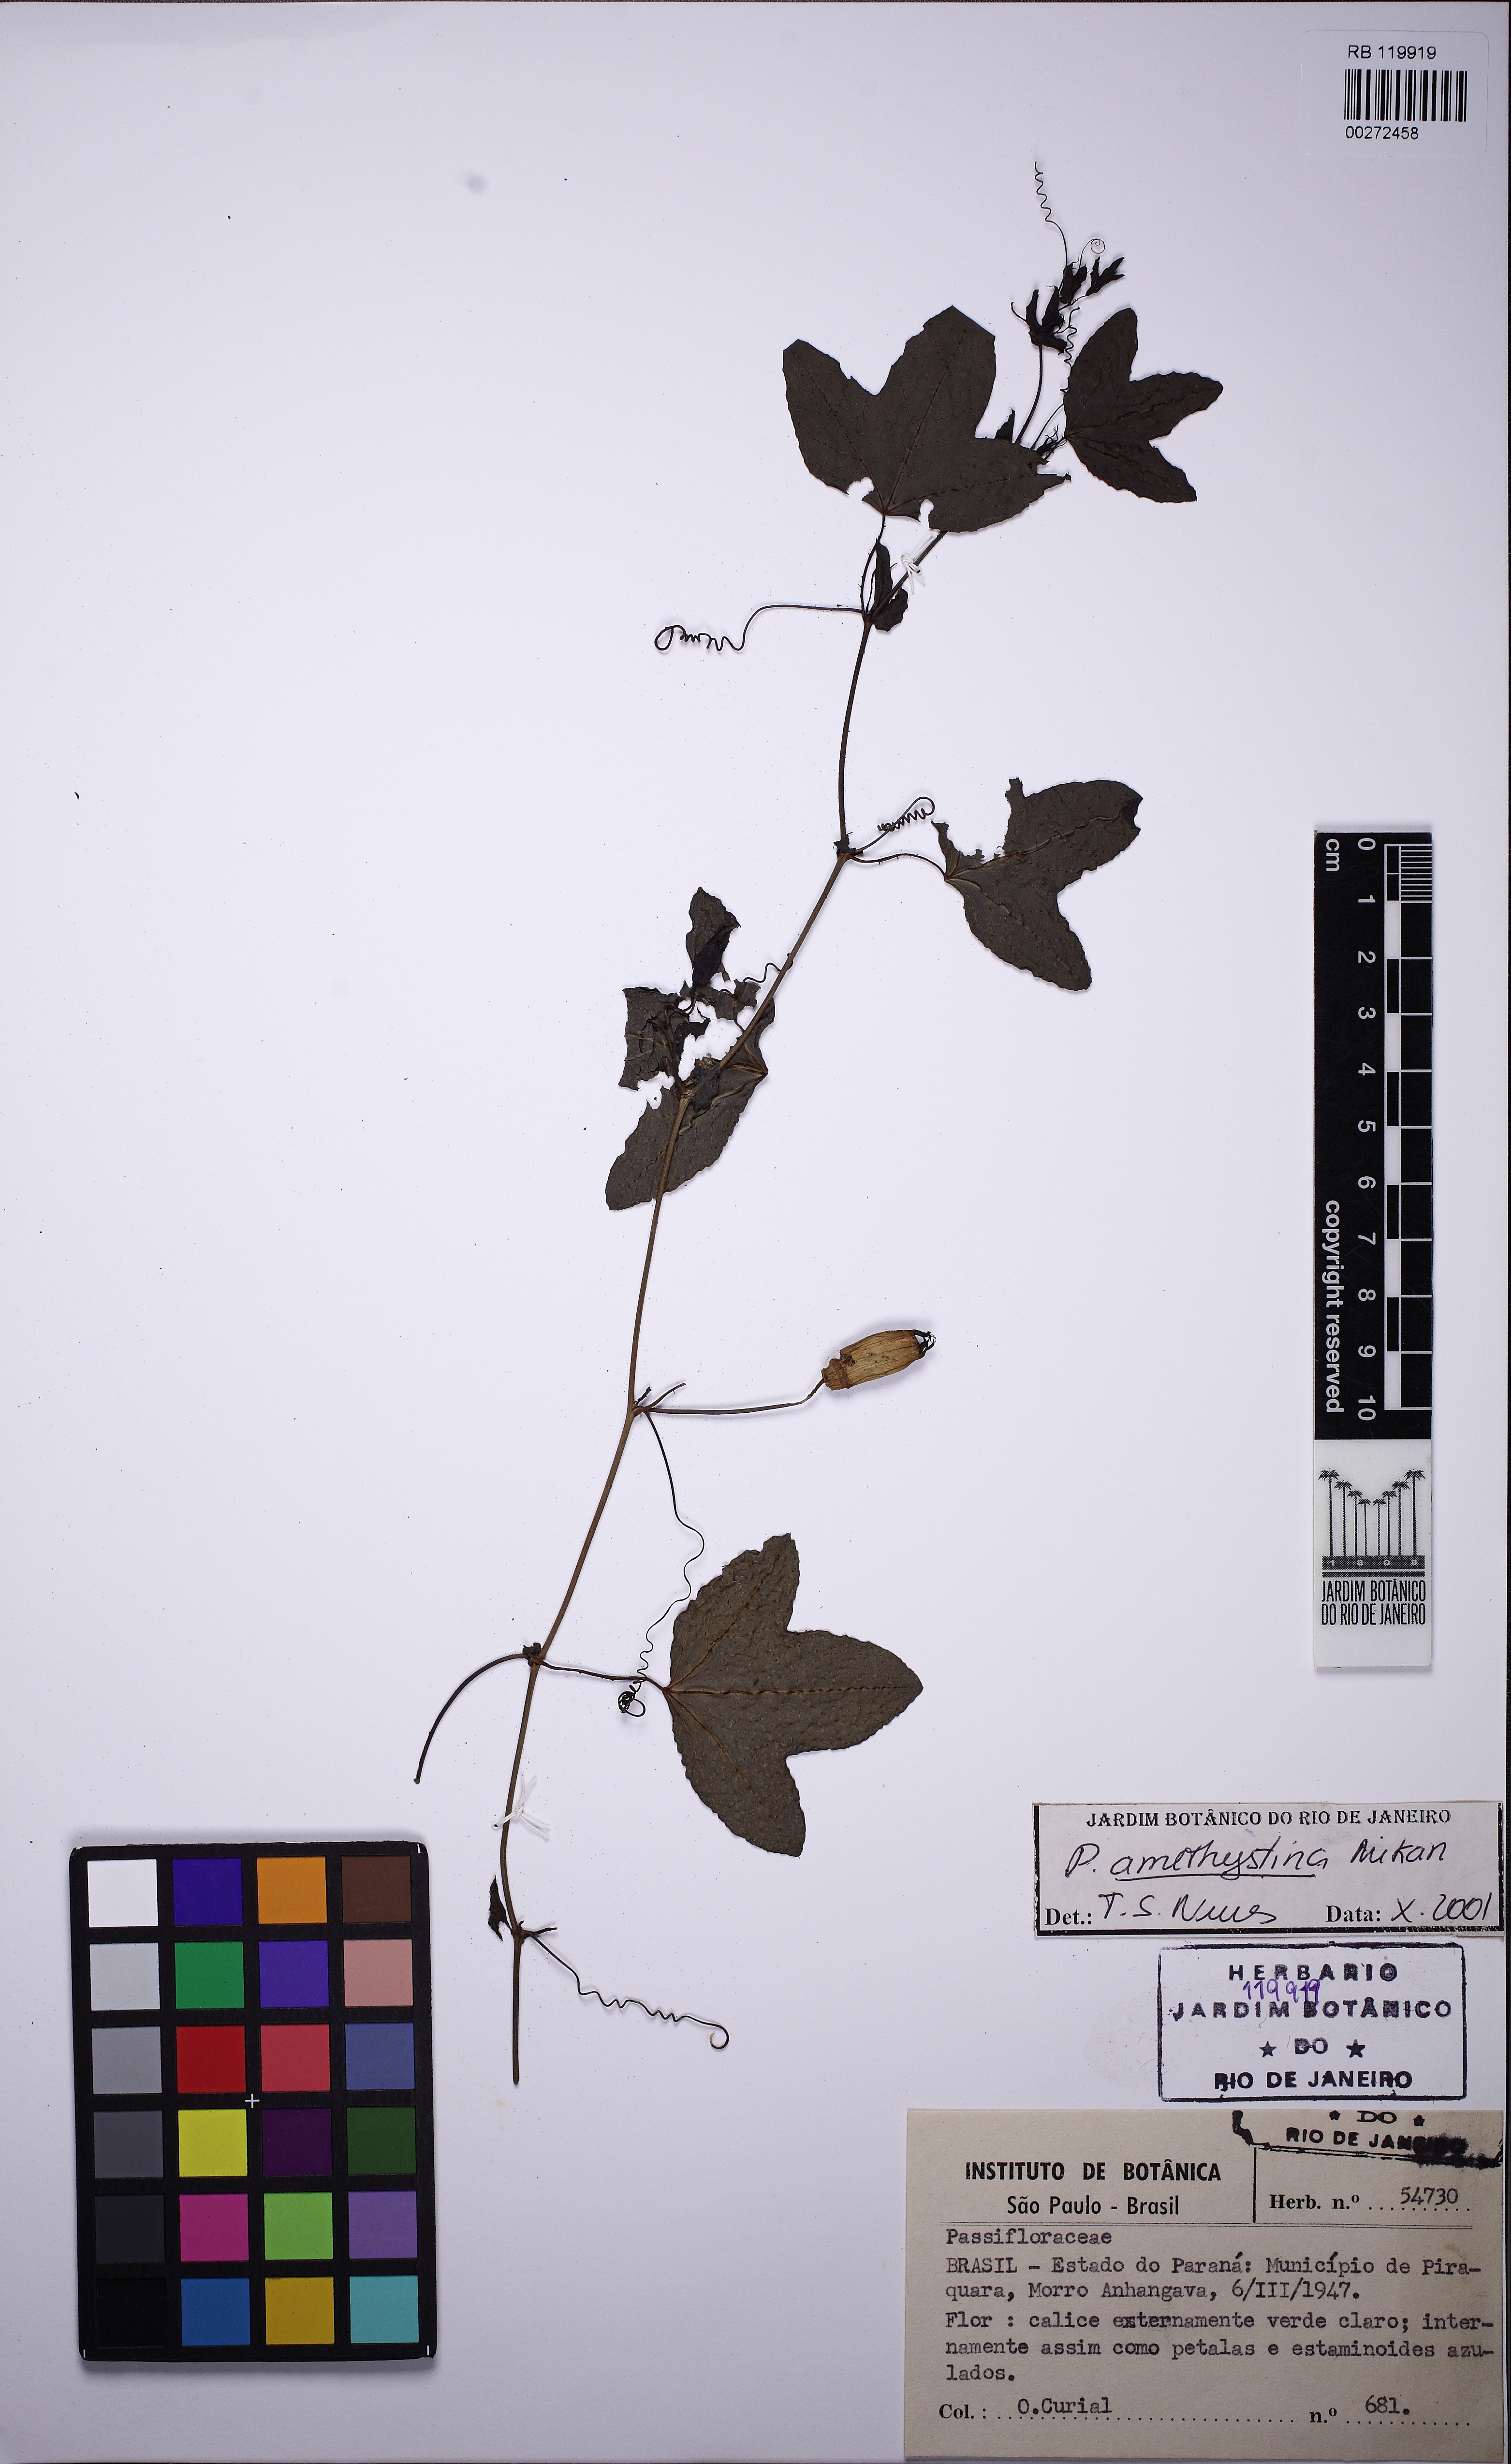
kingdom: Plantae
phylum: Tracheophyta
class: Magnoliopsida
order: Malpighiales
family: Passifloraceae
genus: Passiflora
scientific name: Passiflora amethystina
